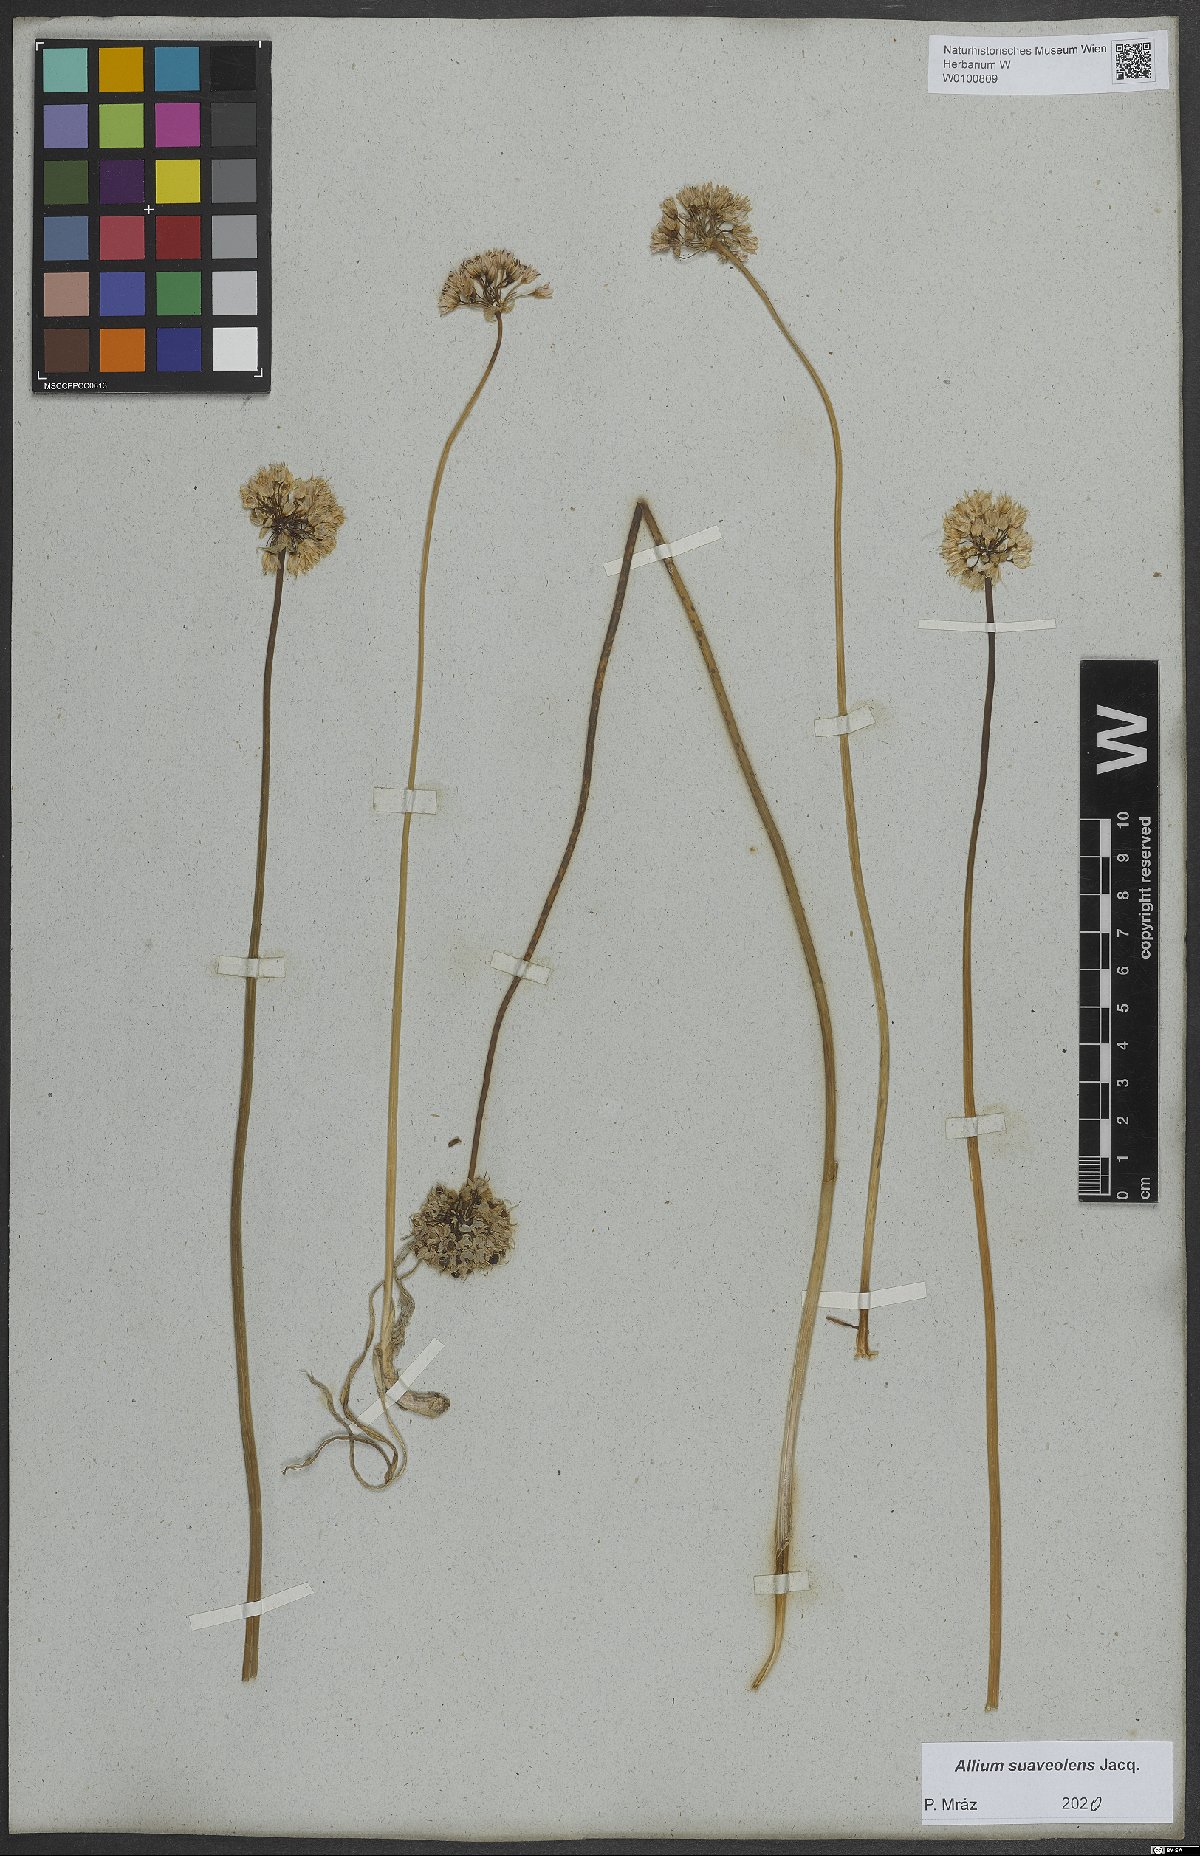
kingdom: Plantae
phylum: Tracheophyta
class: Liliopsida
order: Asparagales
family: Amaryllidaceae
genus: Allium
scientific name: Allium suaveolens
